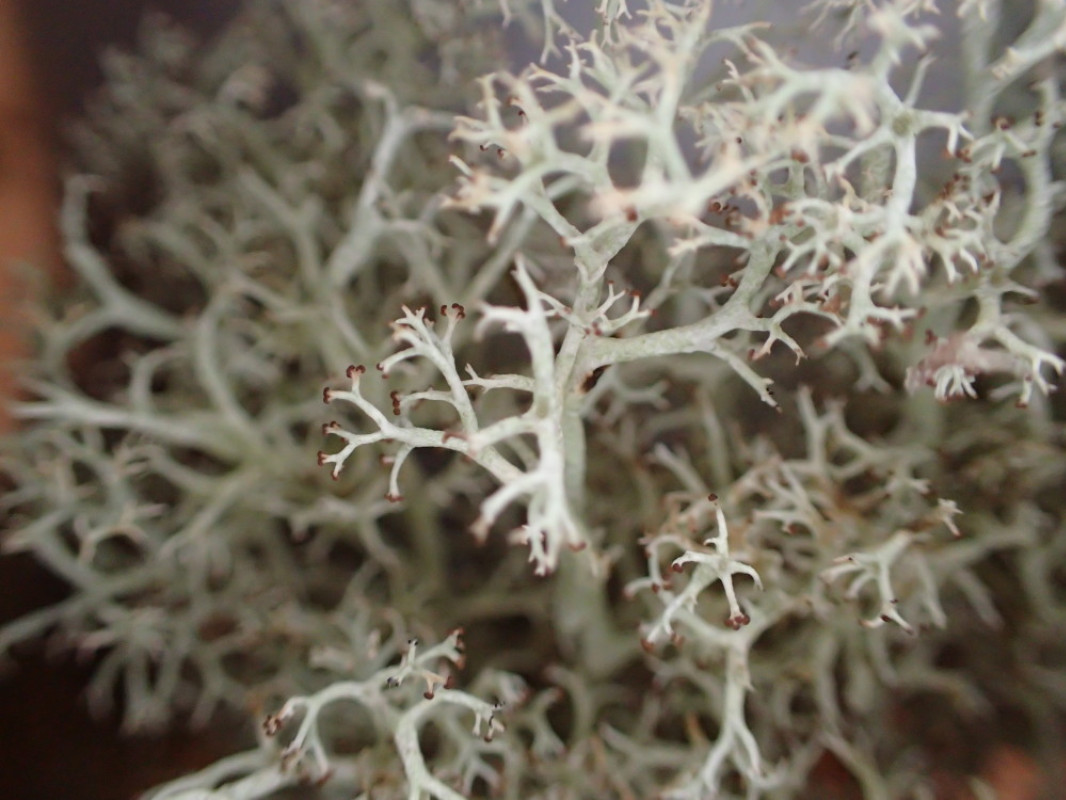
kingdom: Fungi
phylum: Ascomycota
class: Lecanoromycetes
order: Lecanorales
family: Cladoniaceae
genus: Cladonia
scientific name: Cladonia portentosa
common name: hede-rensdyrlav
